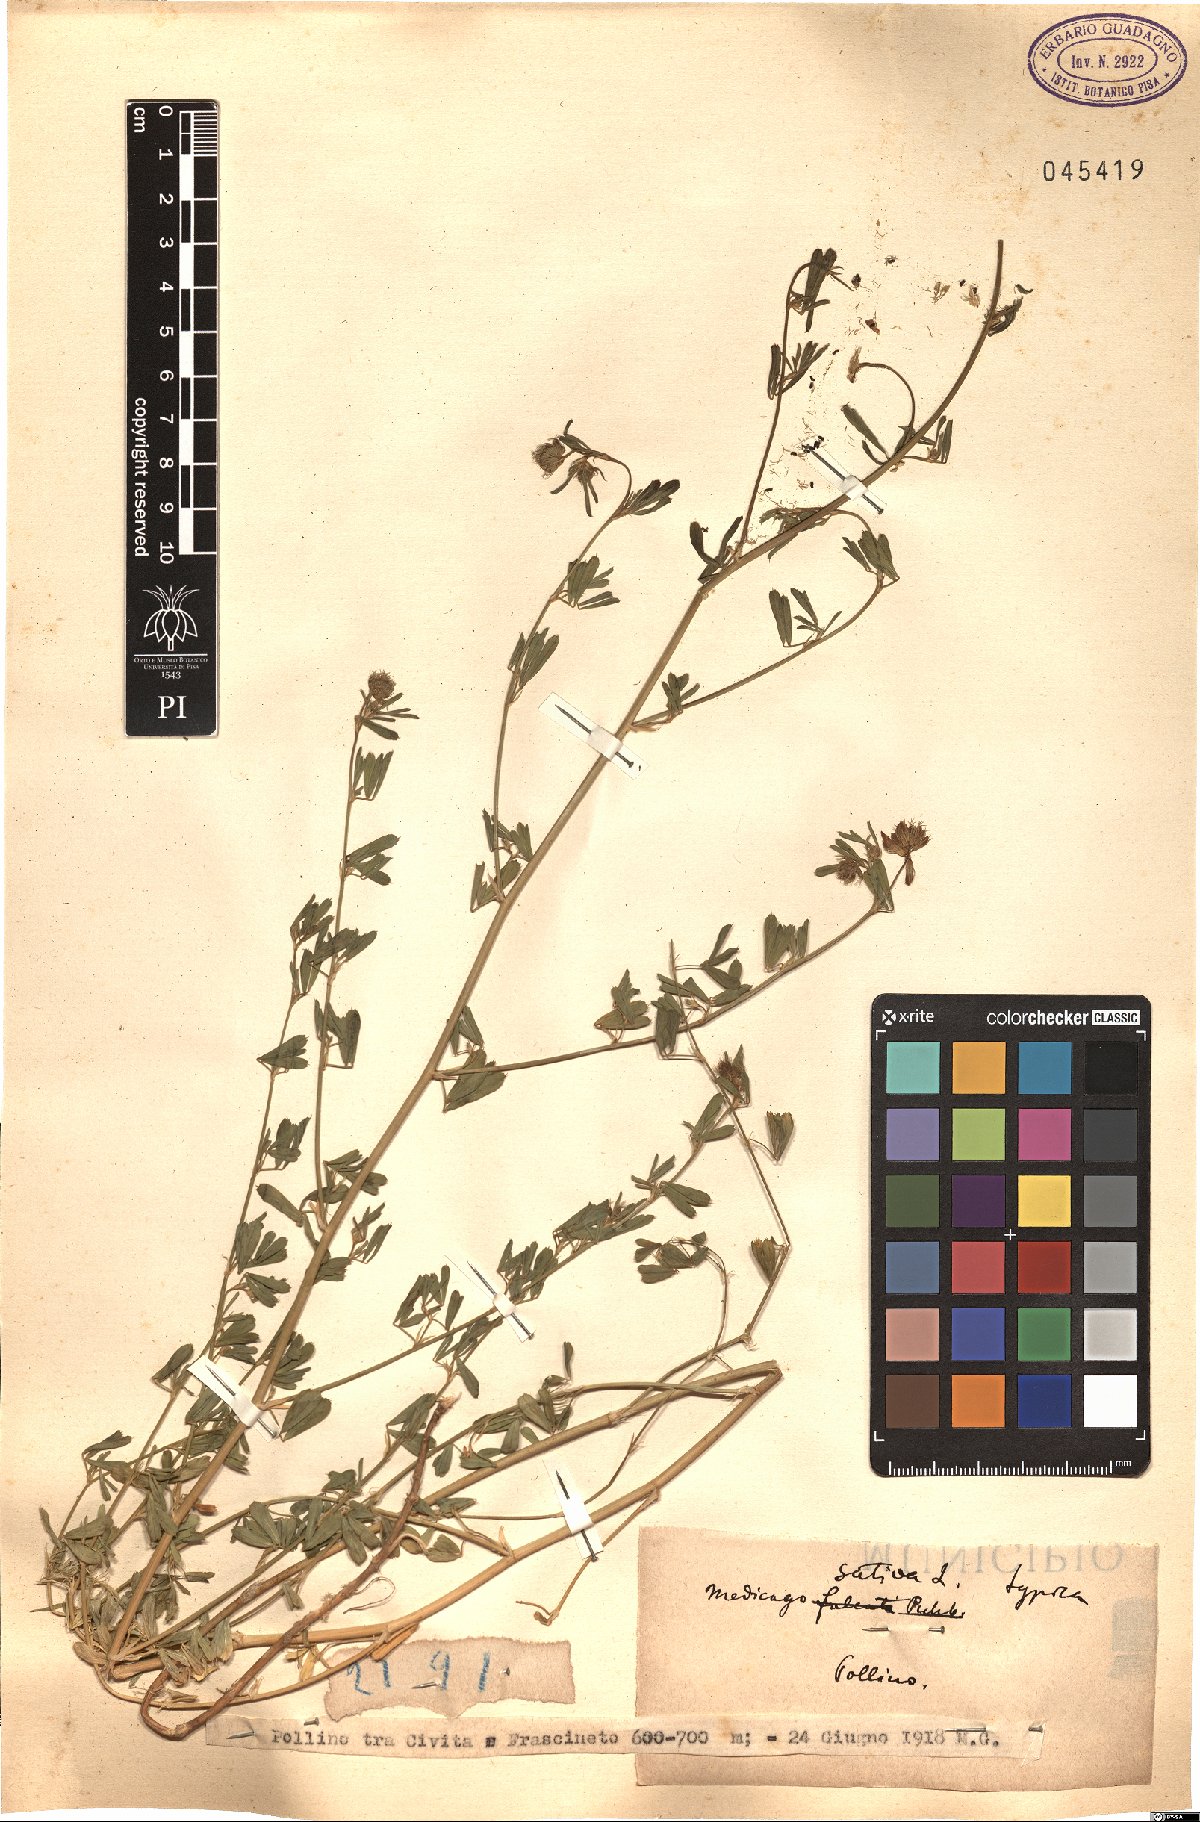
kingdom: Plantae
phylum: Tracheophyta
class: Magnoliopsida
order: Fabales
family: Fabaceae
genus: Medicago
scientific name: Medicago sativa
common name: Alfalfa
